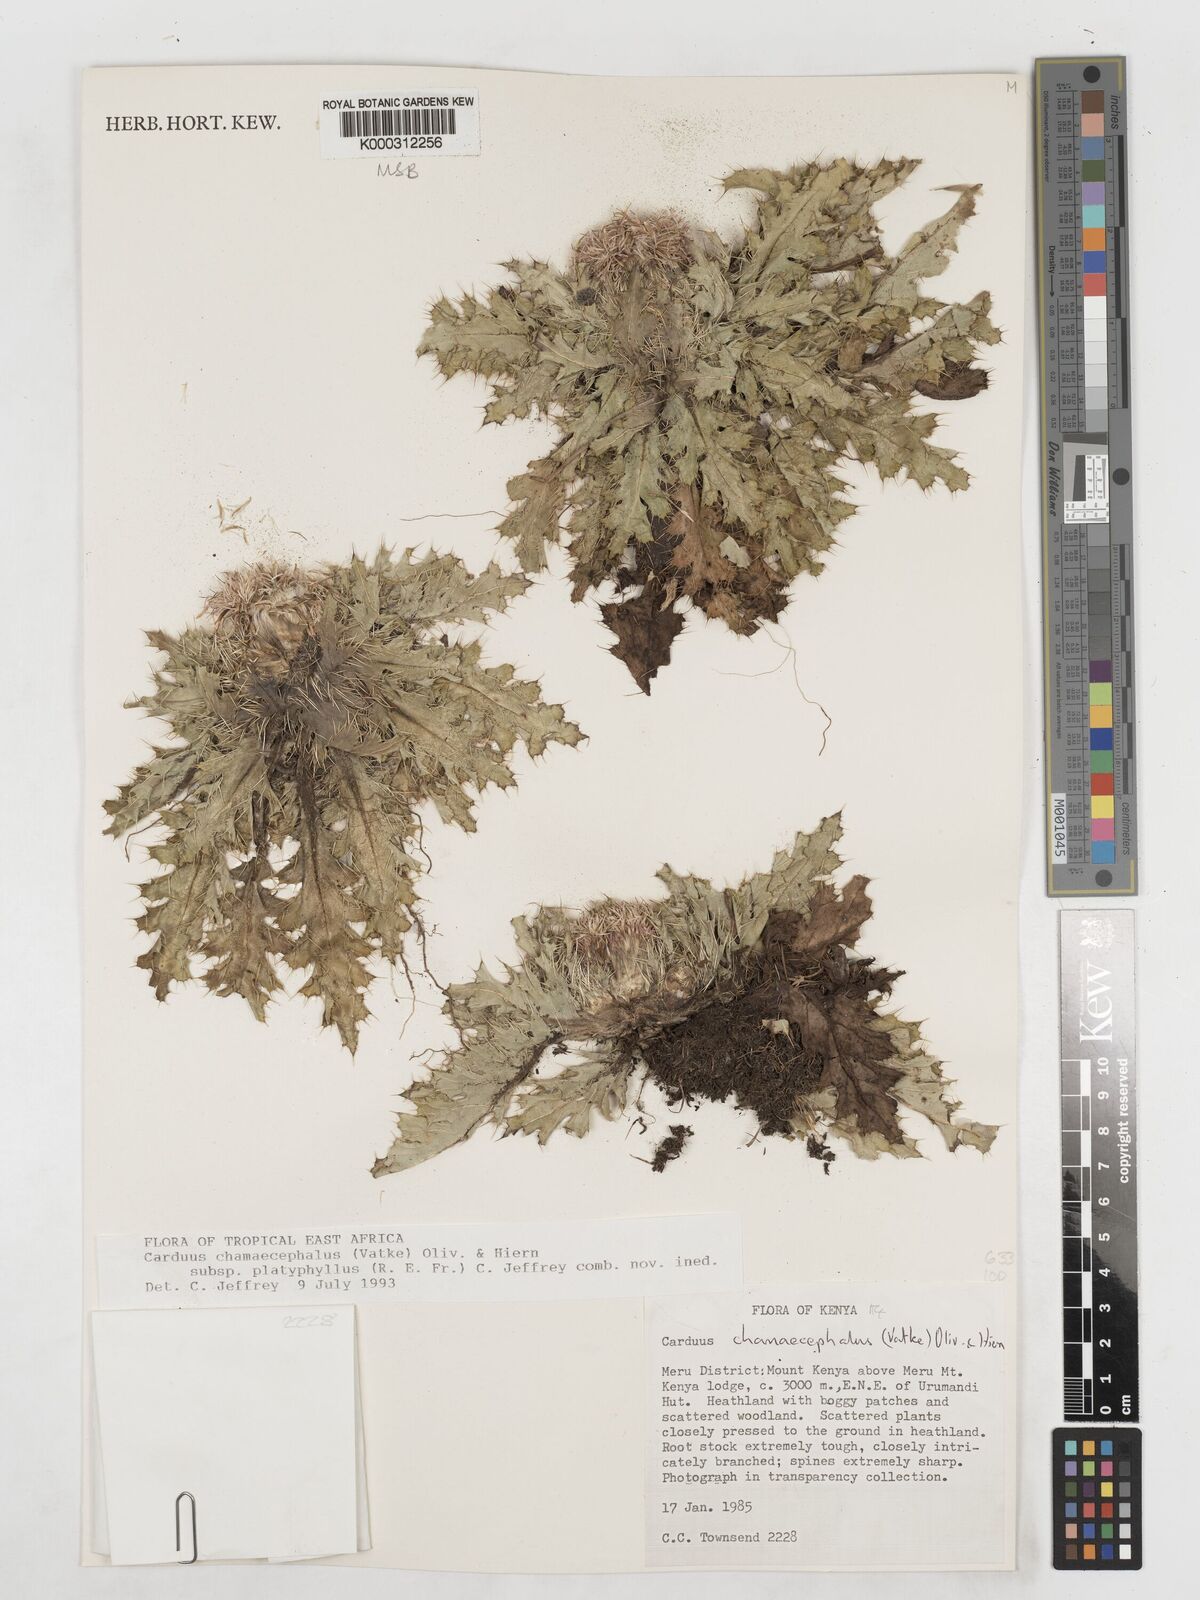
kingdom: Plantae
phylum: Tracheophyta
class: Magnoliopsida
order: Asterales
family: Asteraceae
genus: Carduus
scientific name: Carduus schimperi
